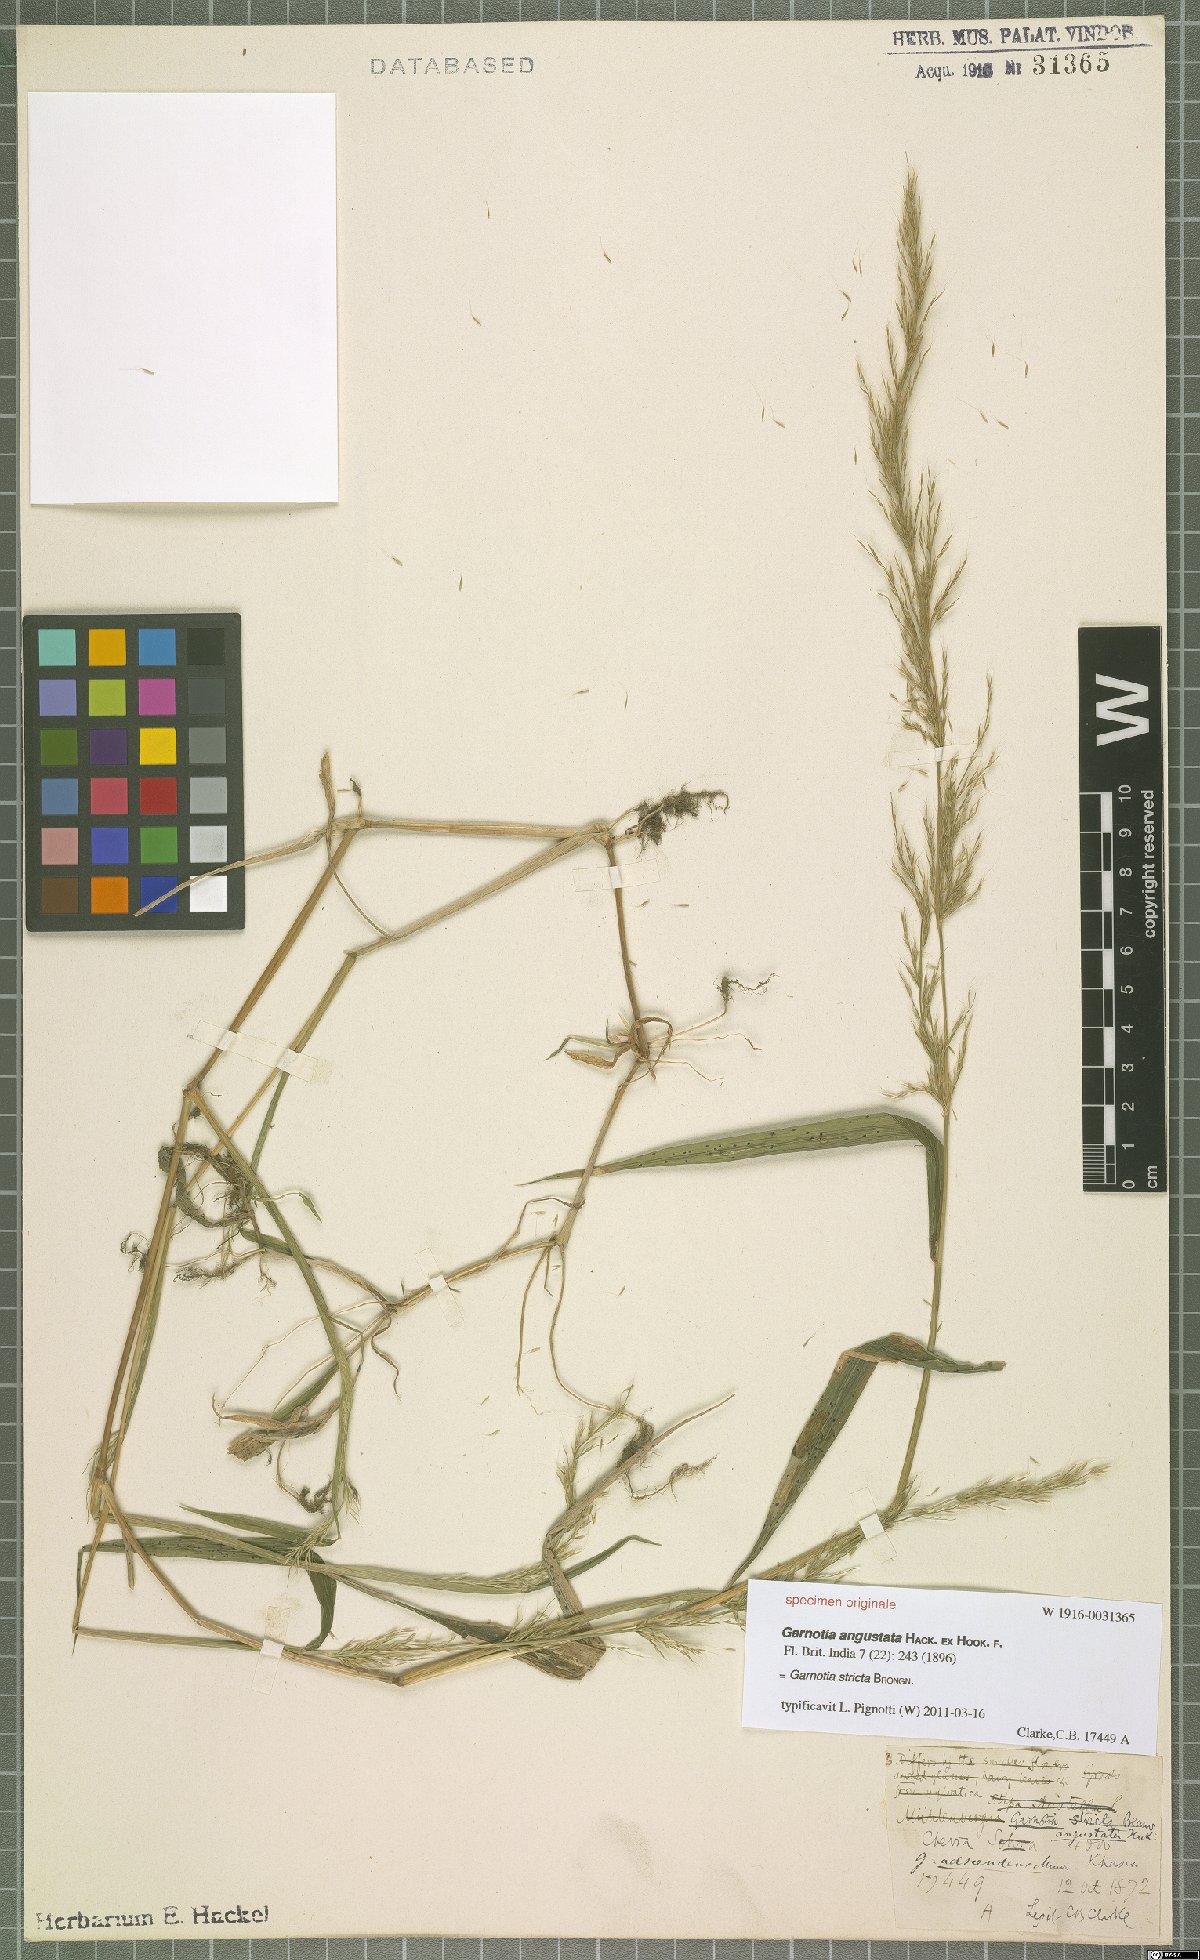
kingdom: Plantae
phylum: Tracheophyta
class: Liliopsida
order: Poales
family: Poaceae
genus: Garnotia
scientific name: Garnotia stricta
